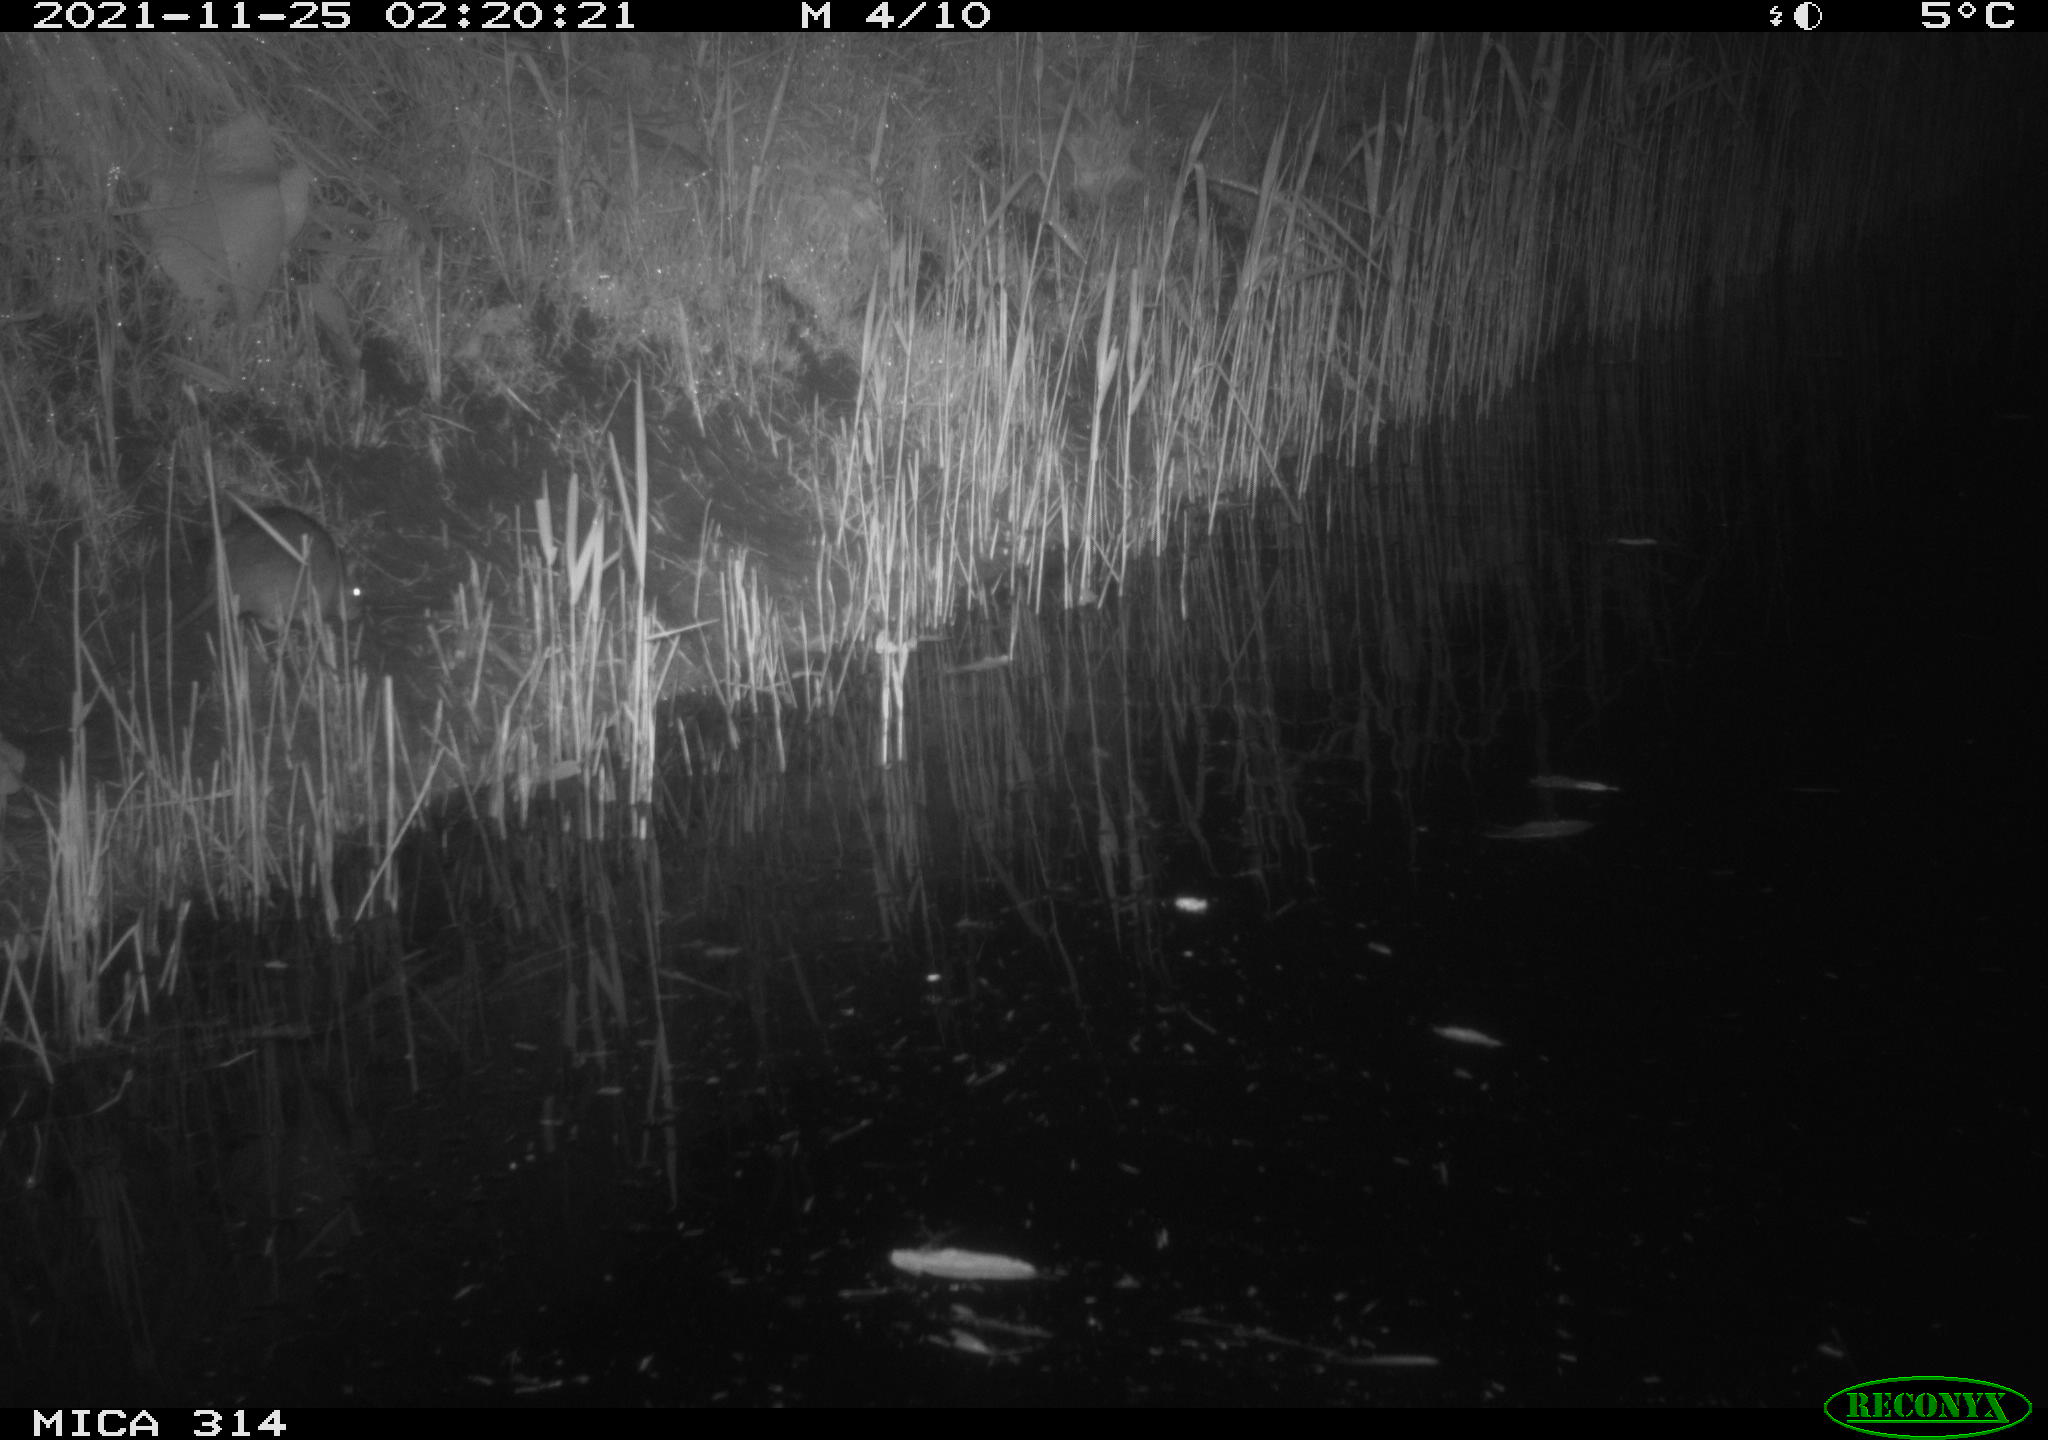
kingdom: Animalia
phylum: Chordata
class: Mammalia
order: Rodentia
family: Muridae
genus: Rattus
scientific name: Rattus norvegicus
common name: Brown rat
